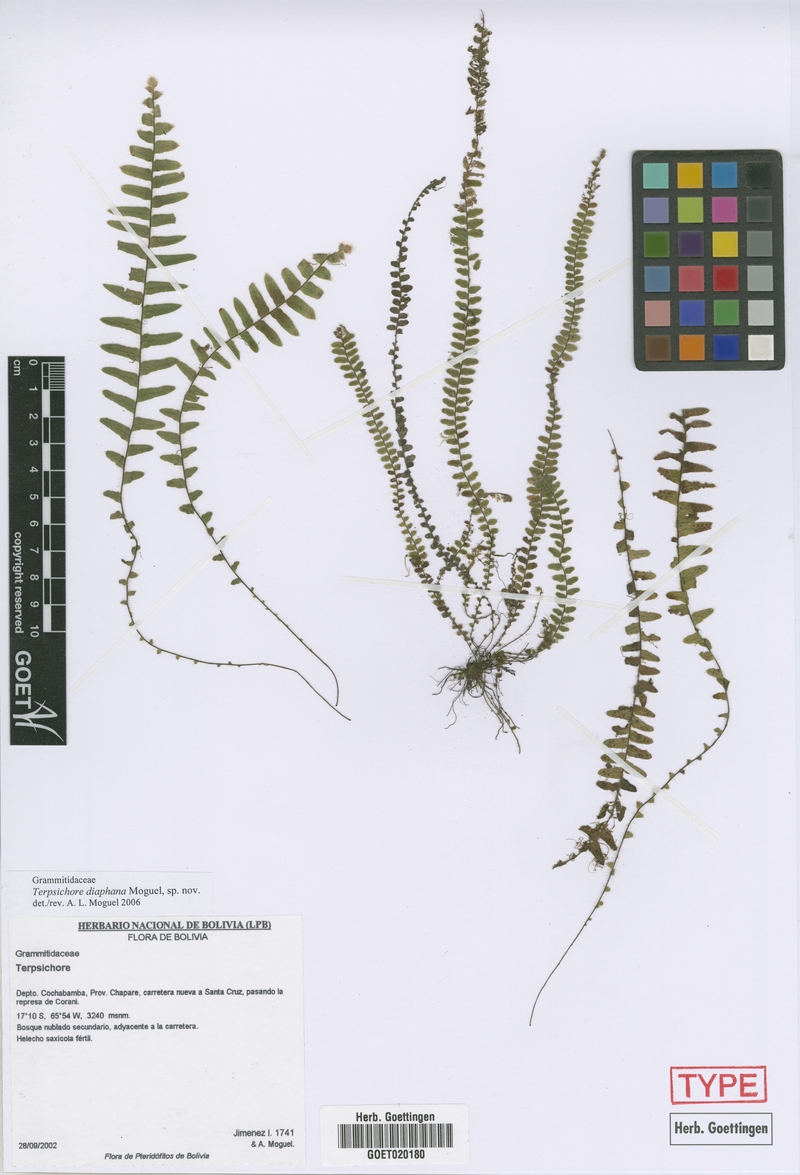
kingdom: Plantae
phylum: Tracheophyta
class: Polypodiopsida
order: Polypodiales
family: Polypodiaceae
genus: Alansmia
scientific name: Alansmia diaphana
